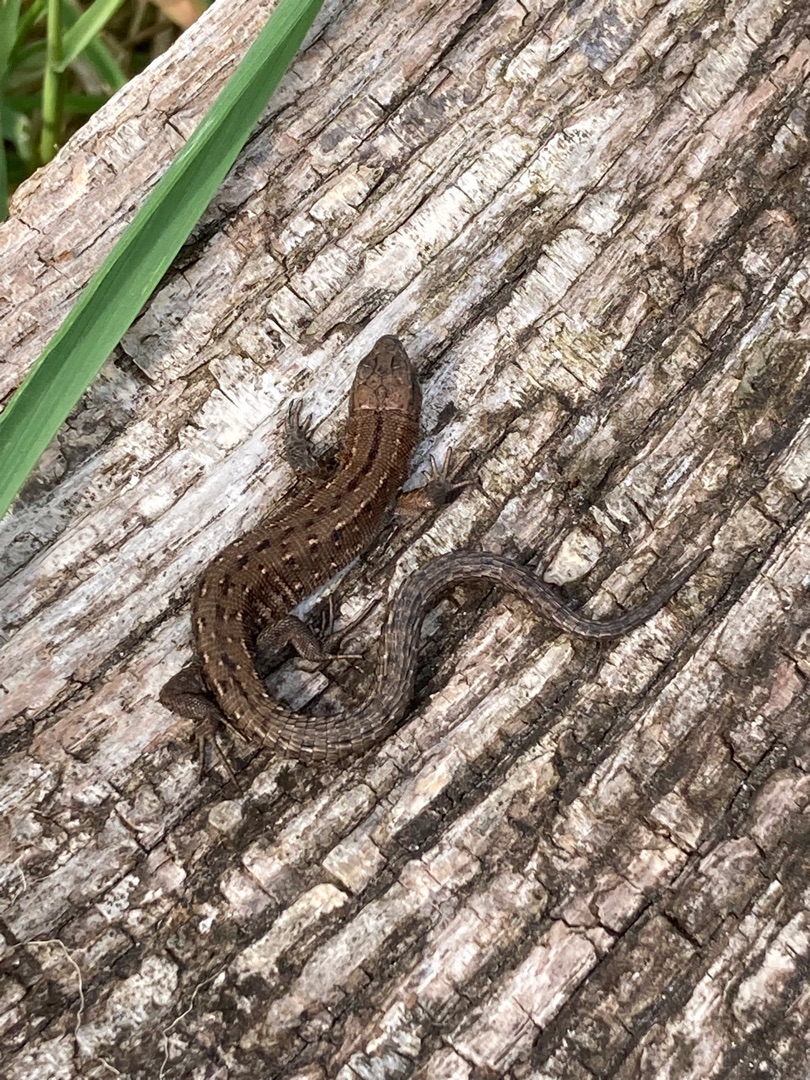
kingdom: Animalia
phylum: Chordata
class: Squamata
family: Lacertidae
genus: Zootoca
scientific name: Zootoca vivipara
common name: Skovfirben
